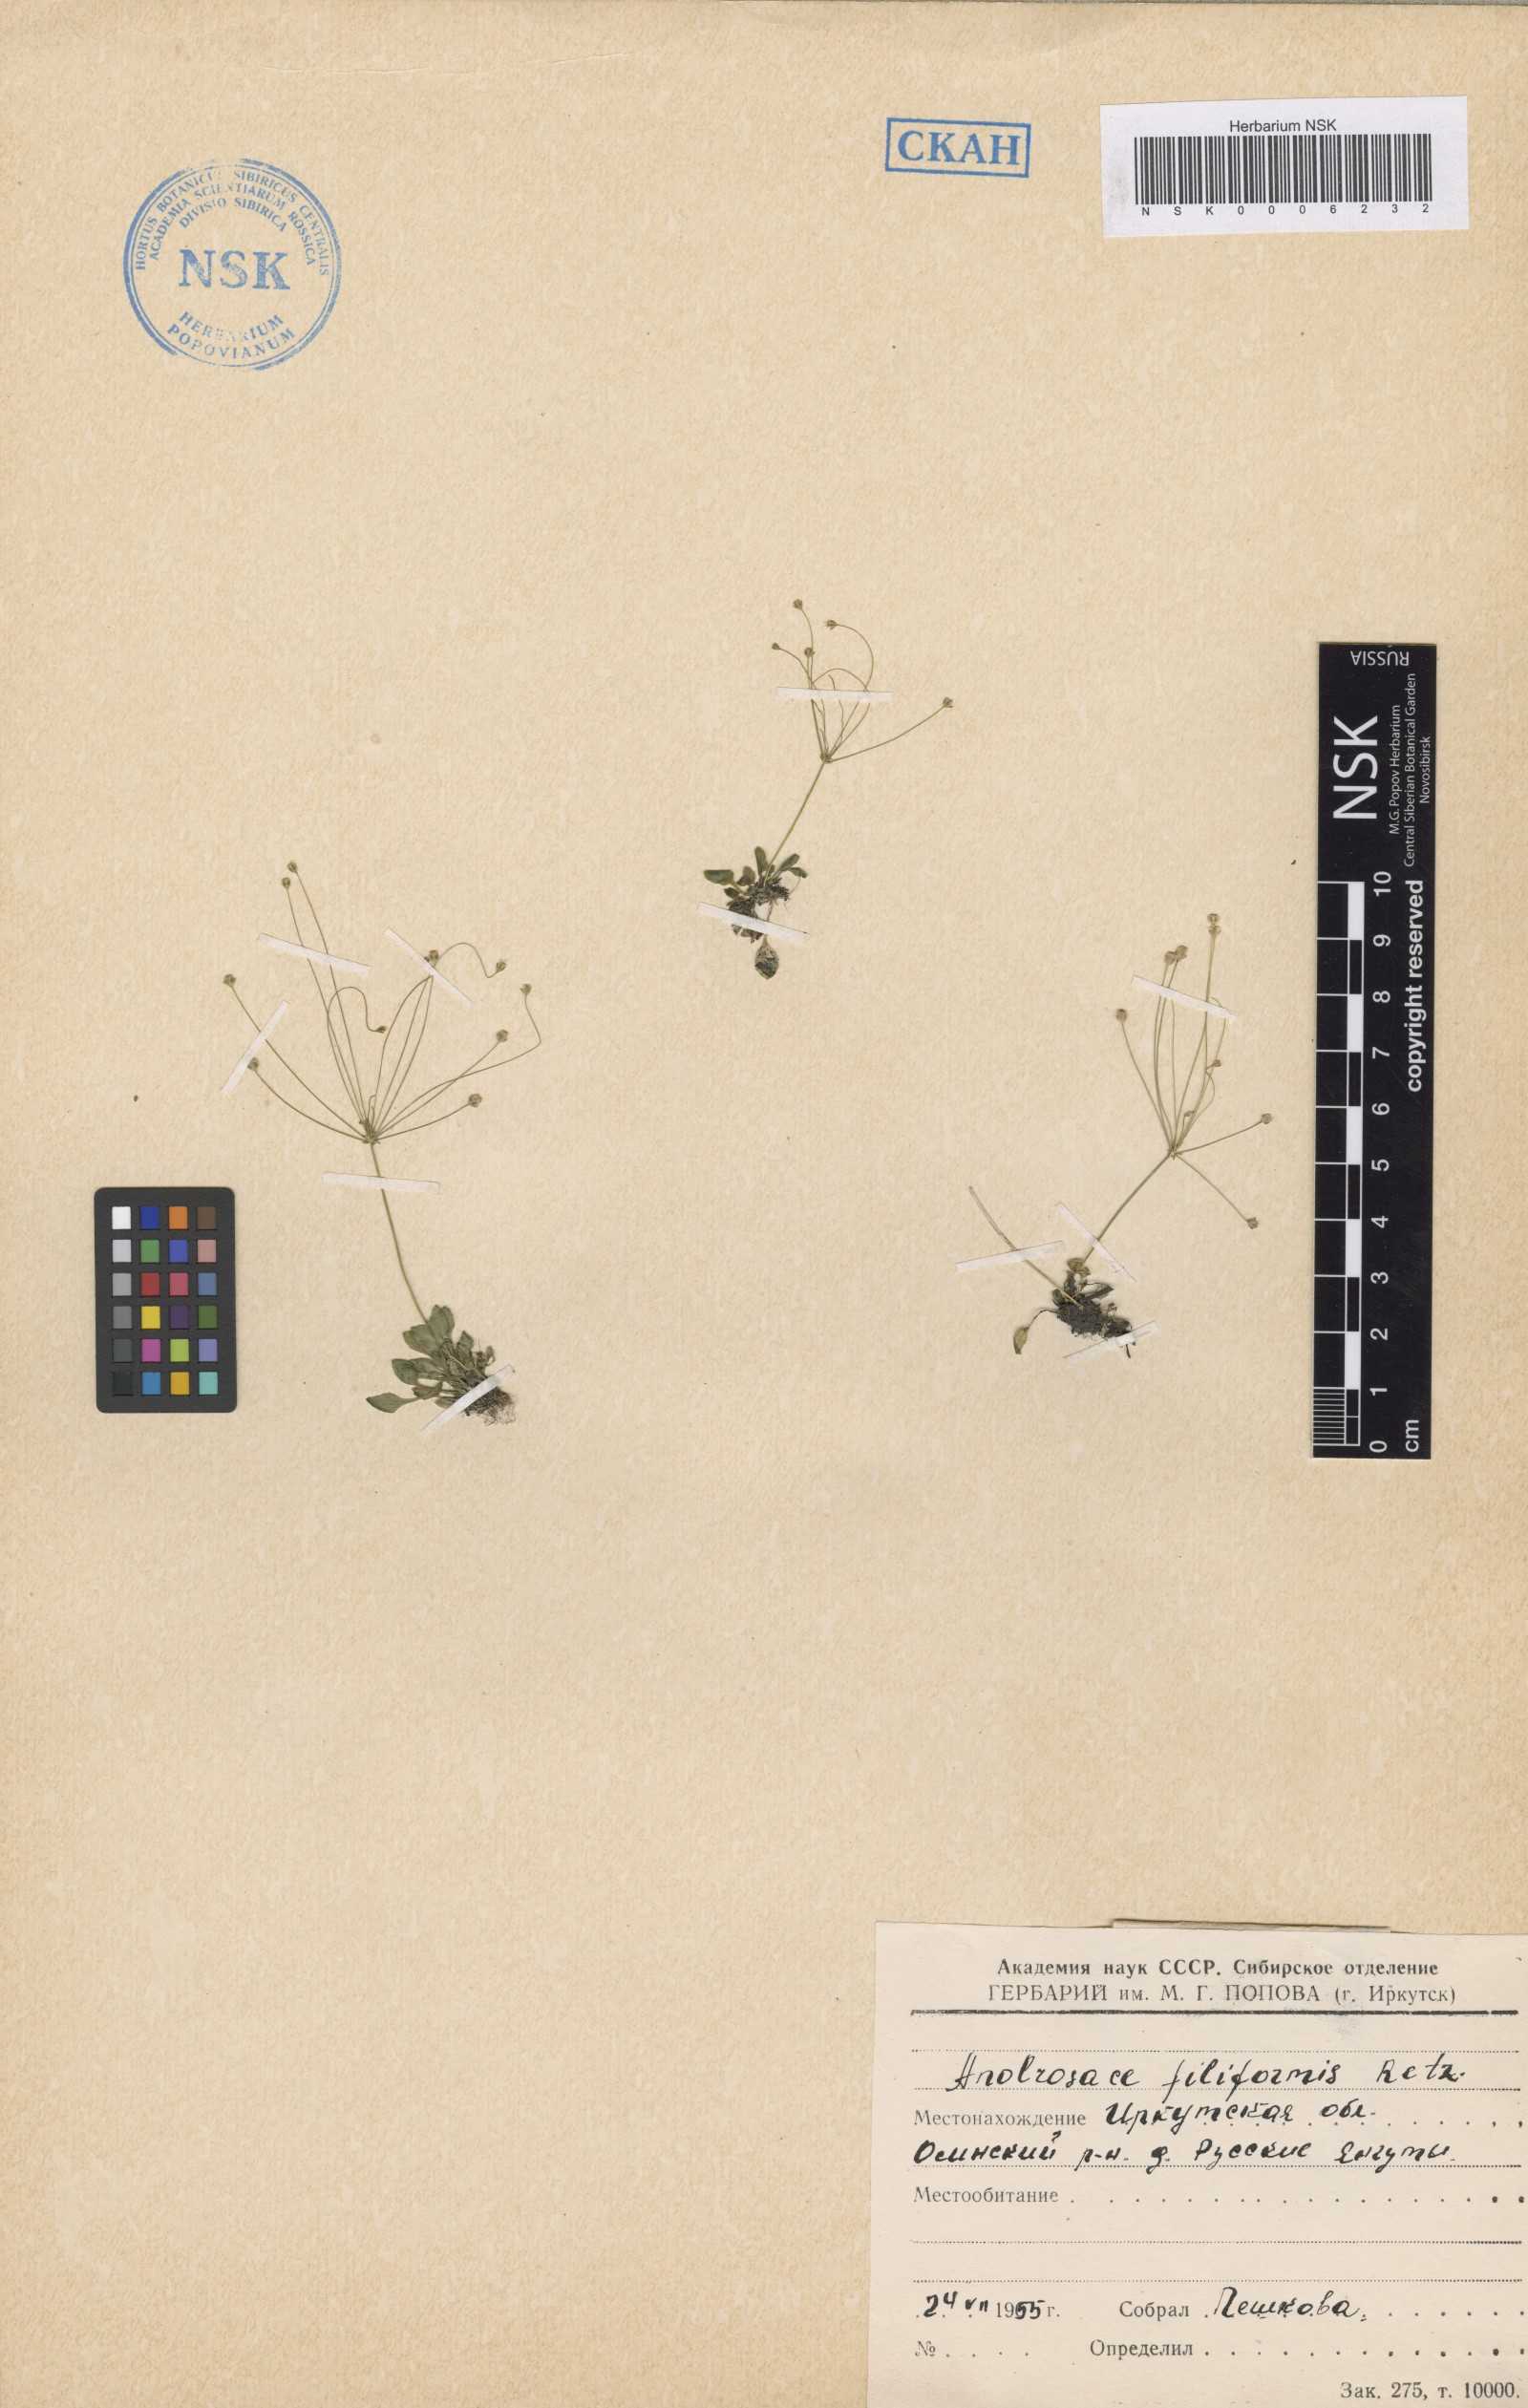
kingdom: Plantae
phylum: Tracheophyta
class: Magnoliopsida
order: Ericales
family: Primulaceae
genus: Androsace
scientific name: Androsace filiformis
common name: Filiform rock jasmine
